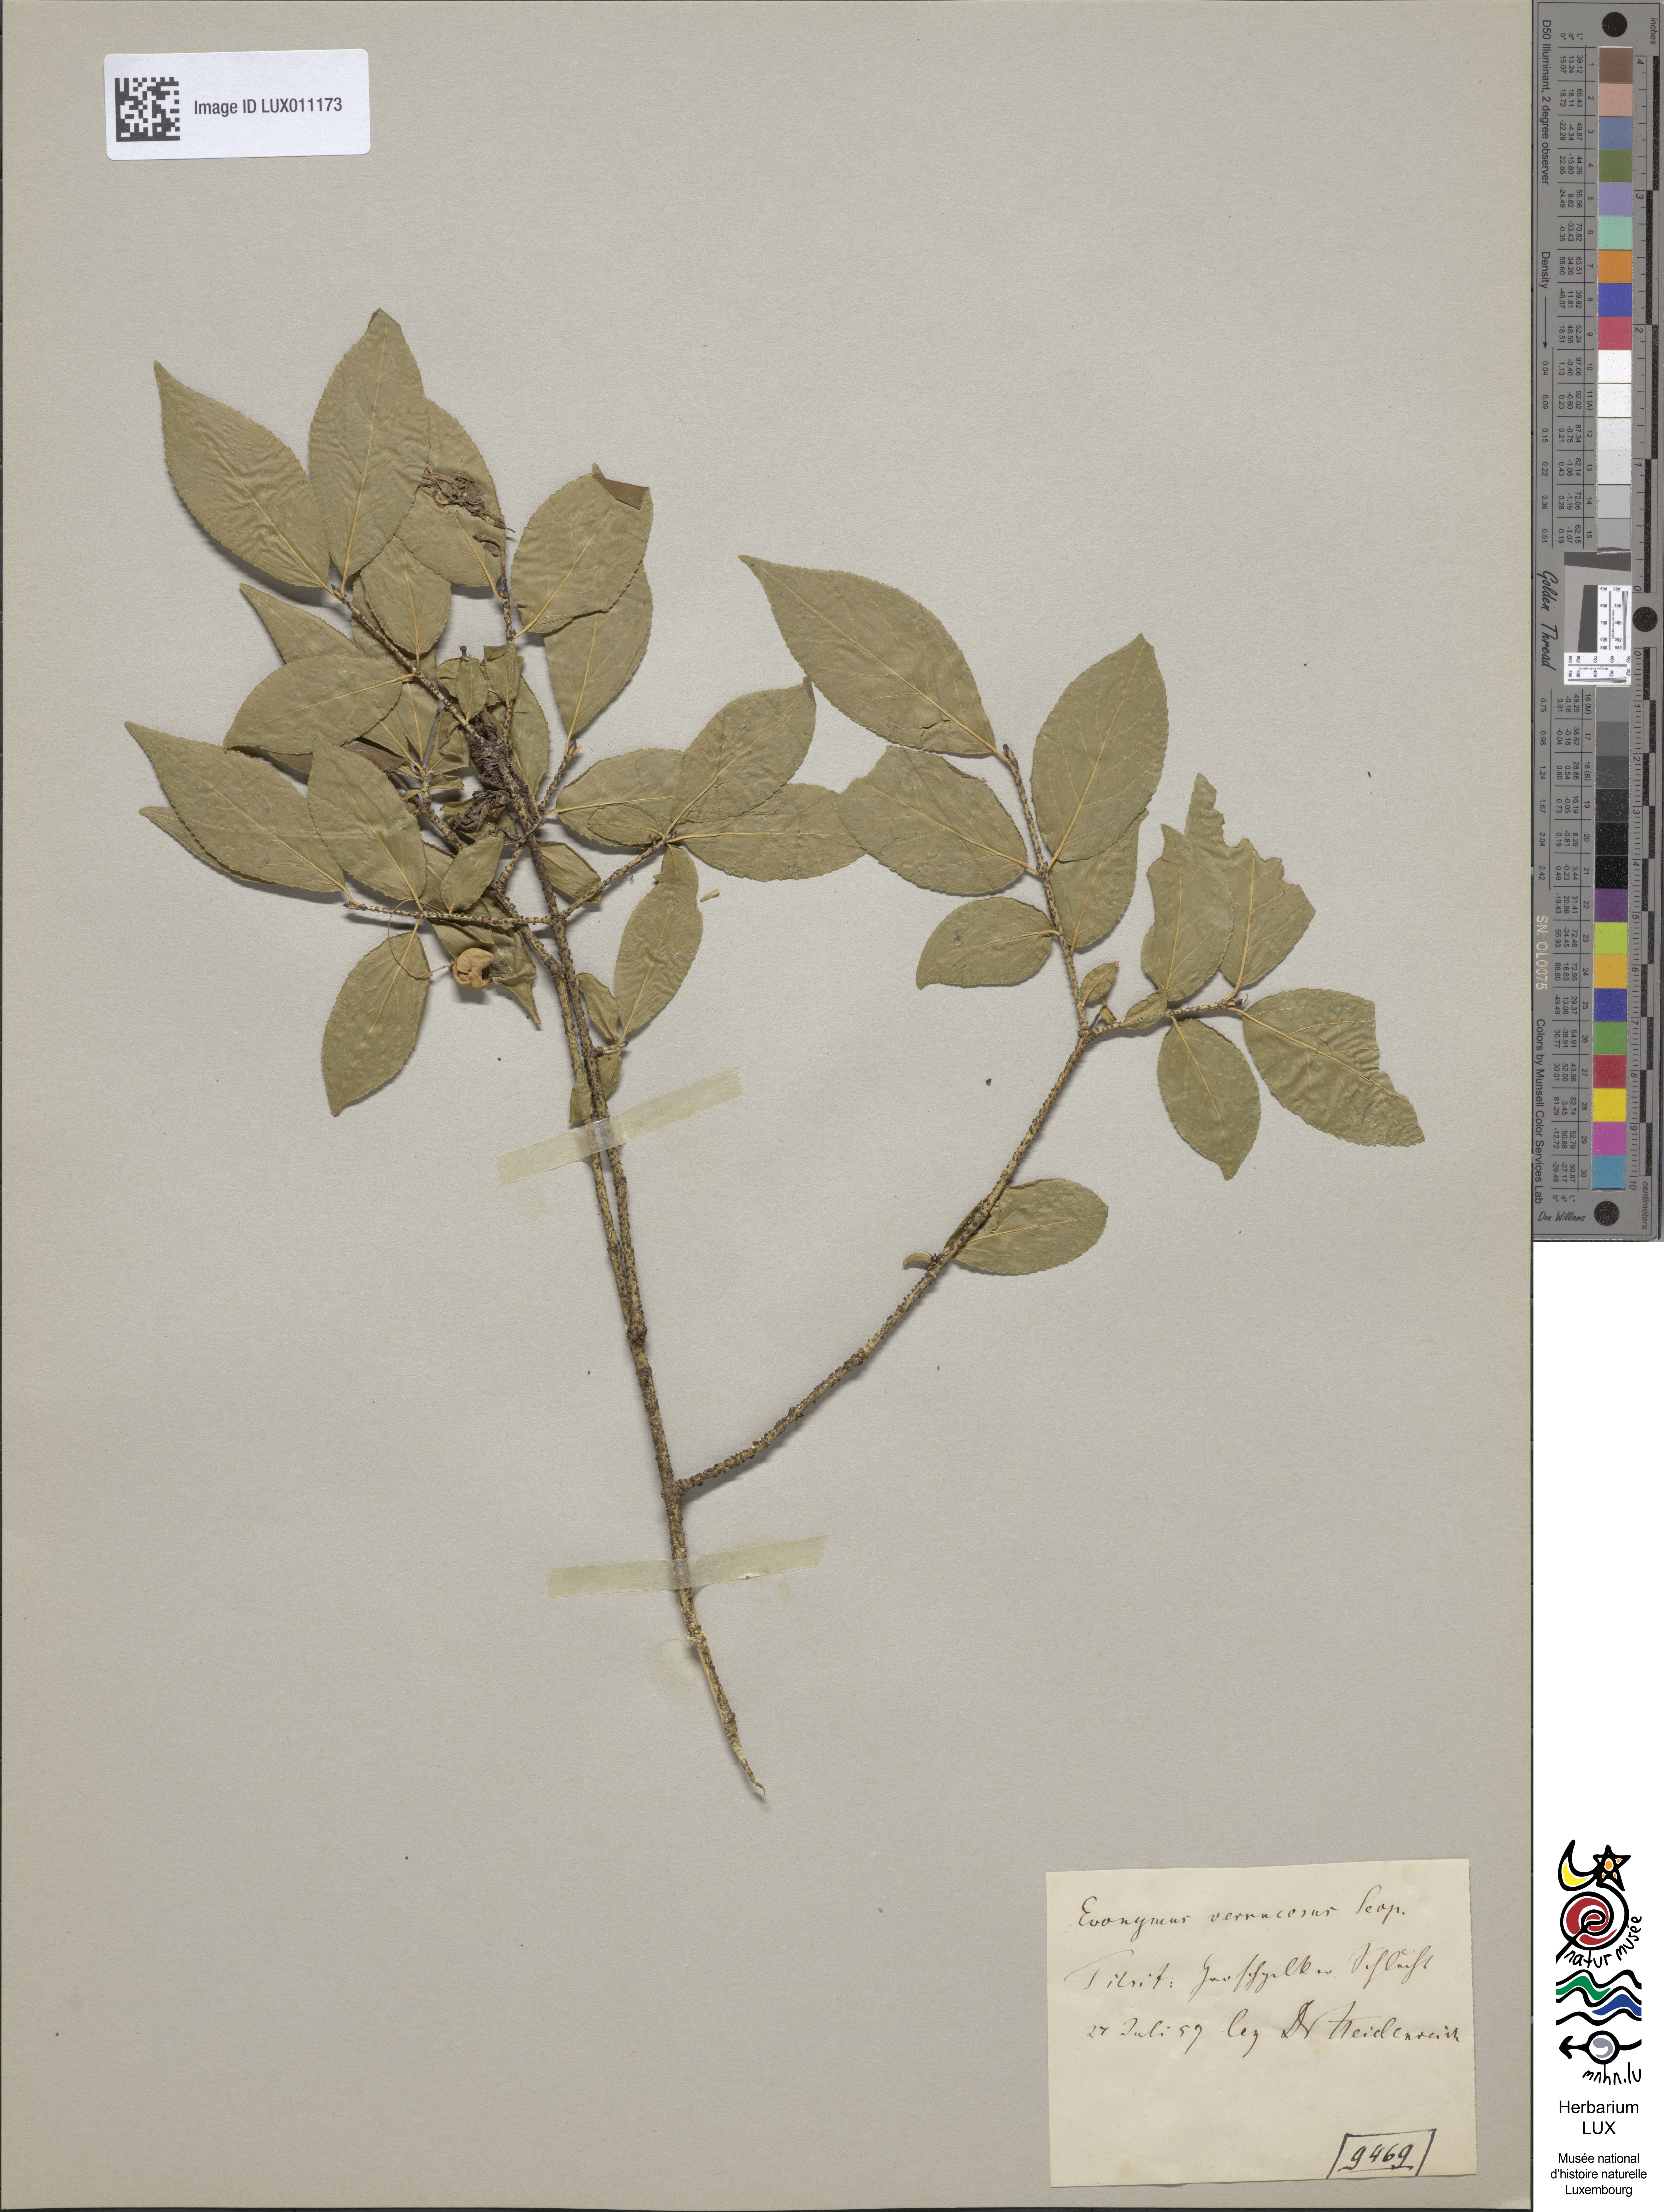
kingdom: Plantae
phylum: Tracheophyta
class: Magnoliopsida
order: Celastrales
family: Celastraceae
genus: Euonymus
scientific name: Euonymus verrucosus
